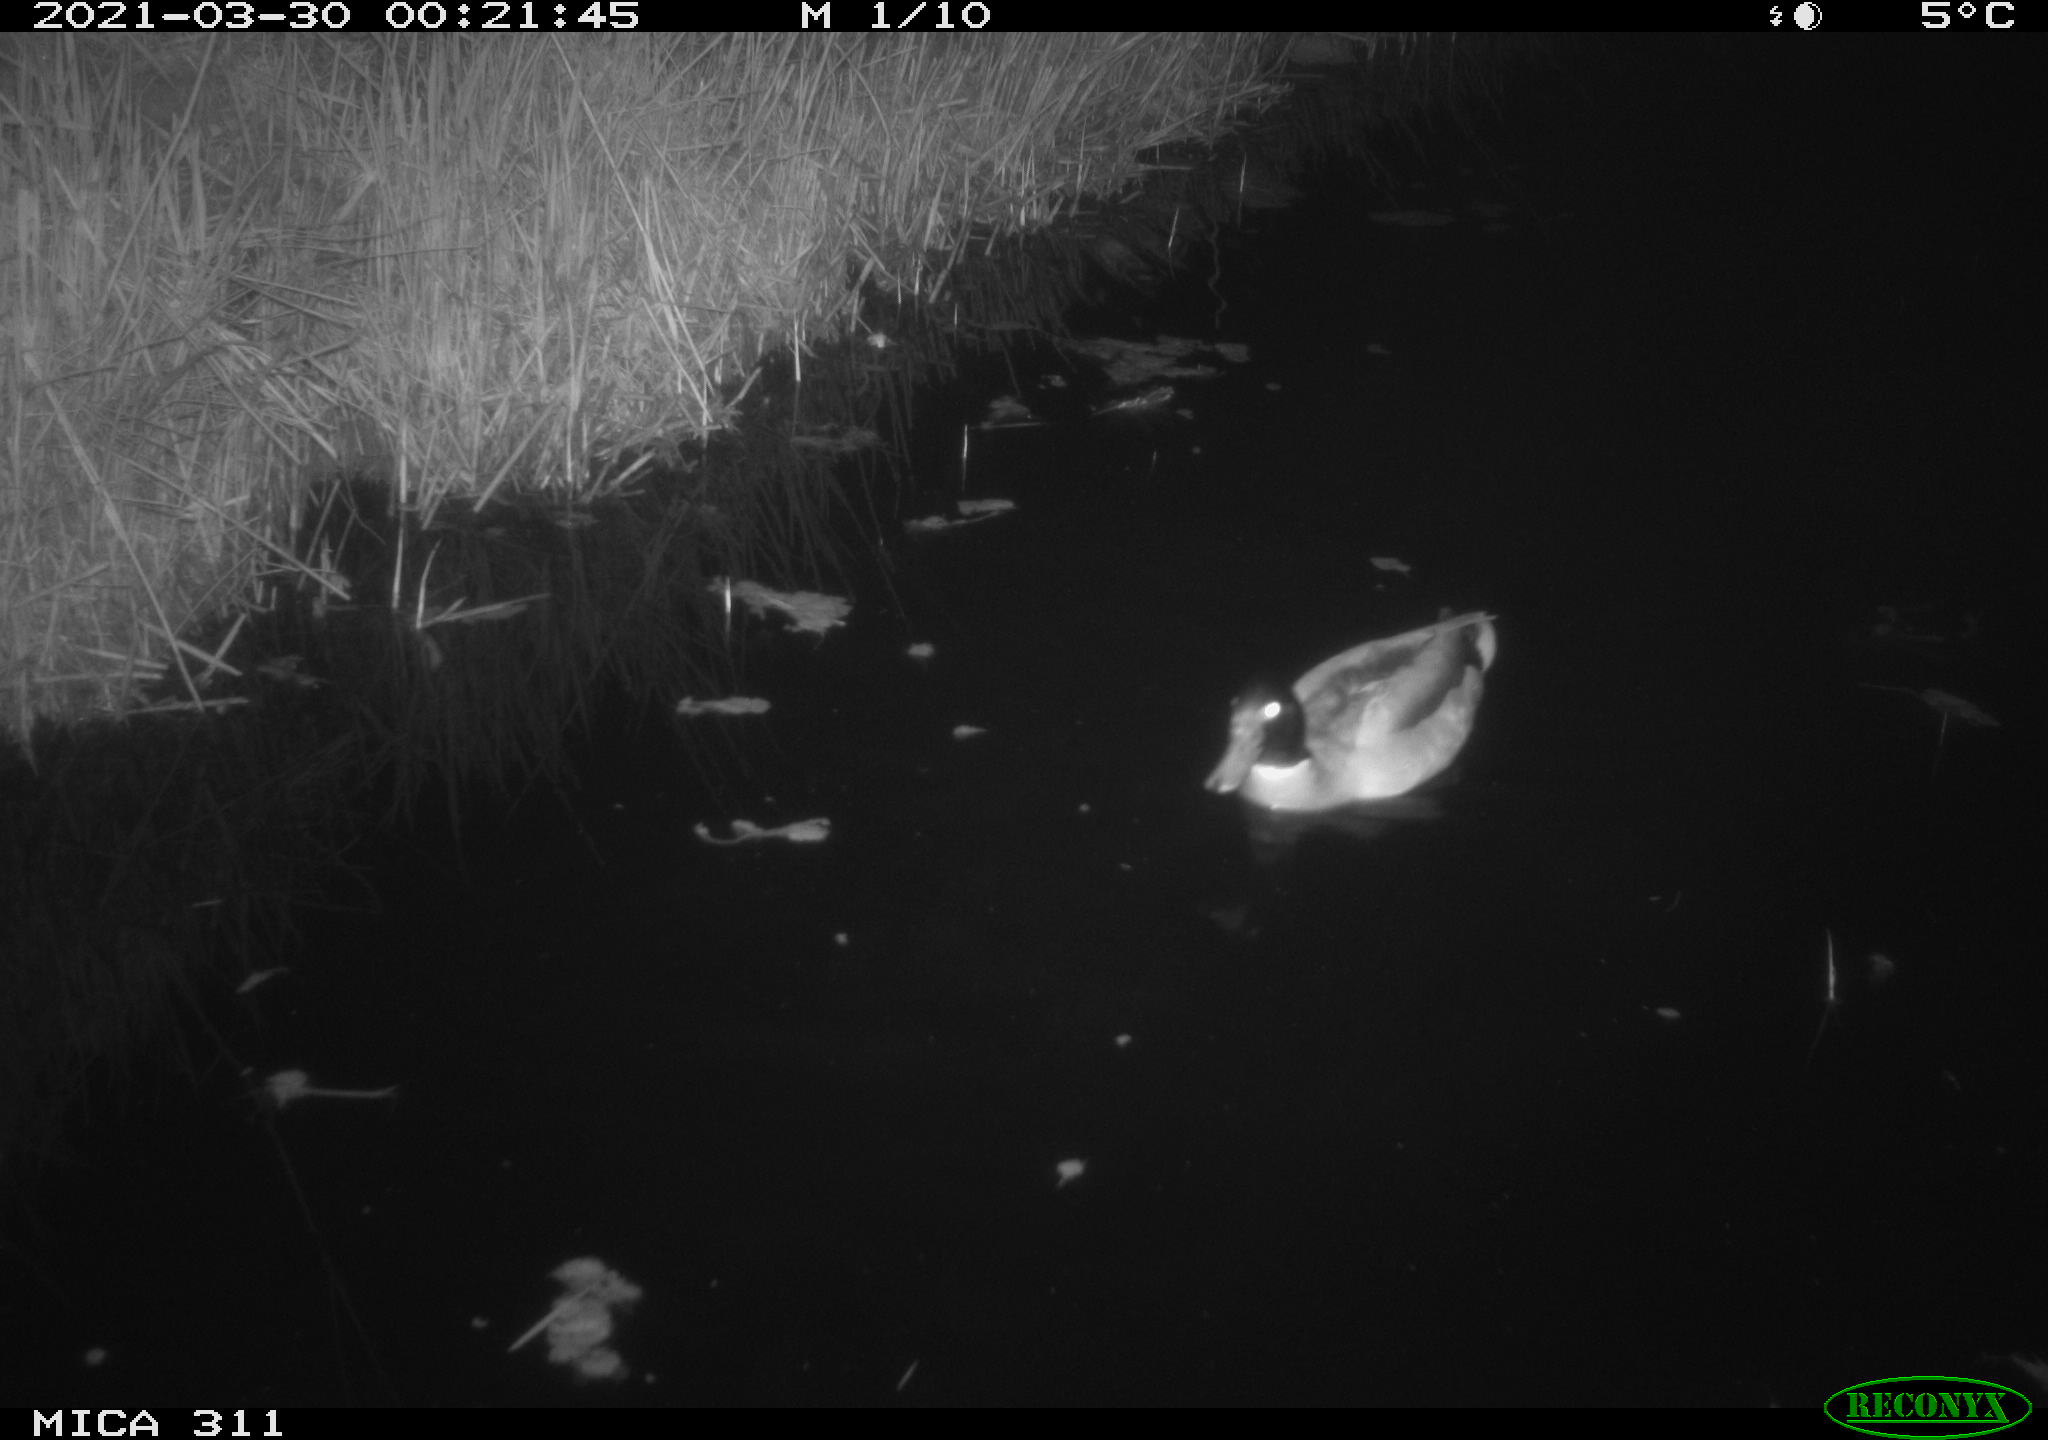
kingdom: Animalia
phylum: Chordata
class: Aves
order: Anseriformes
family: Anatidae
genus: Anas
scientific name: Anas
